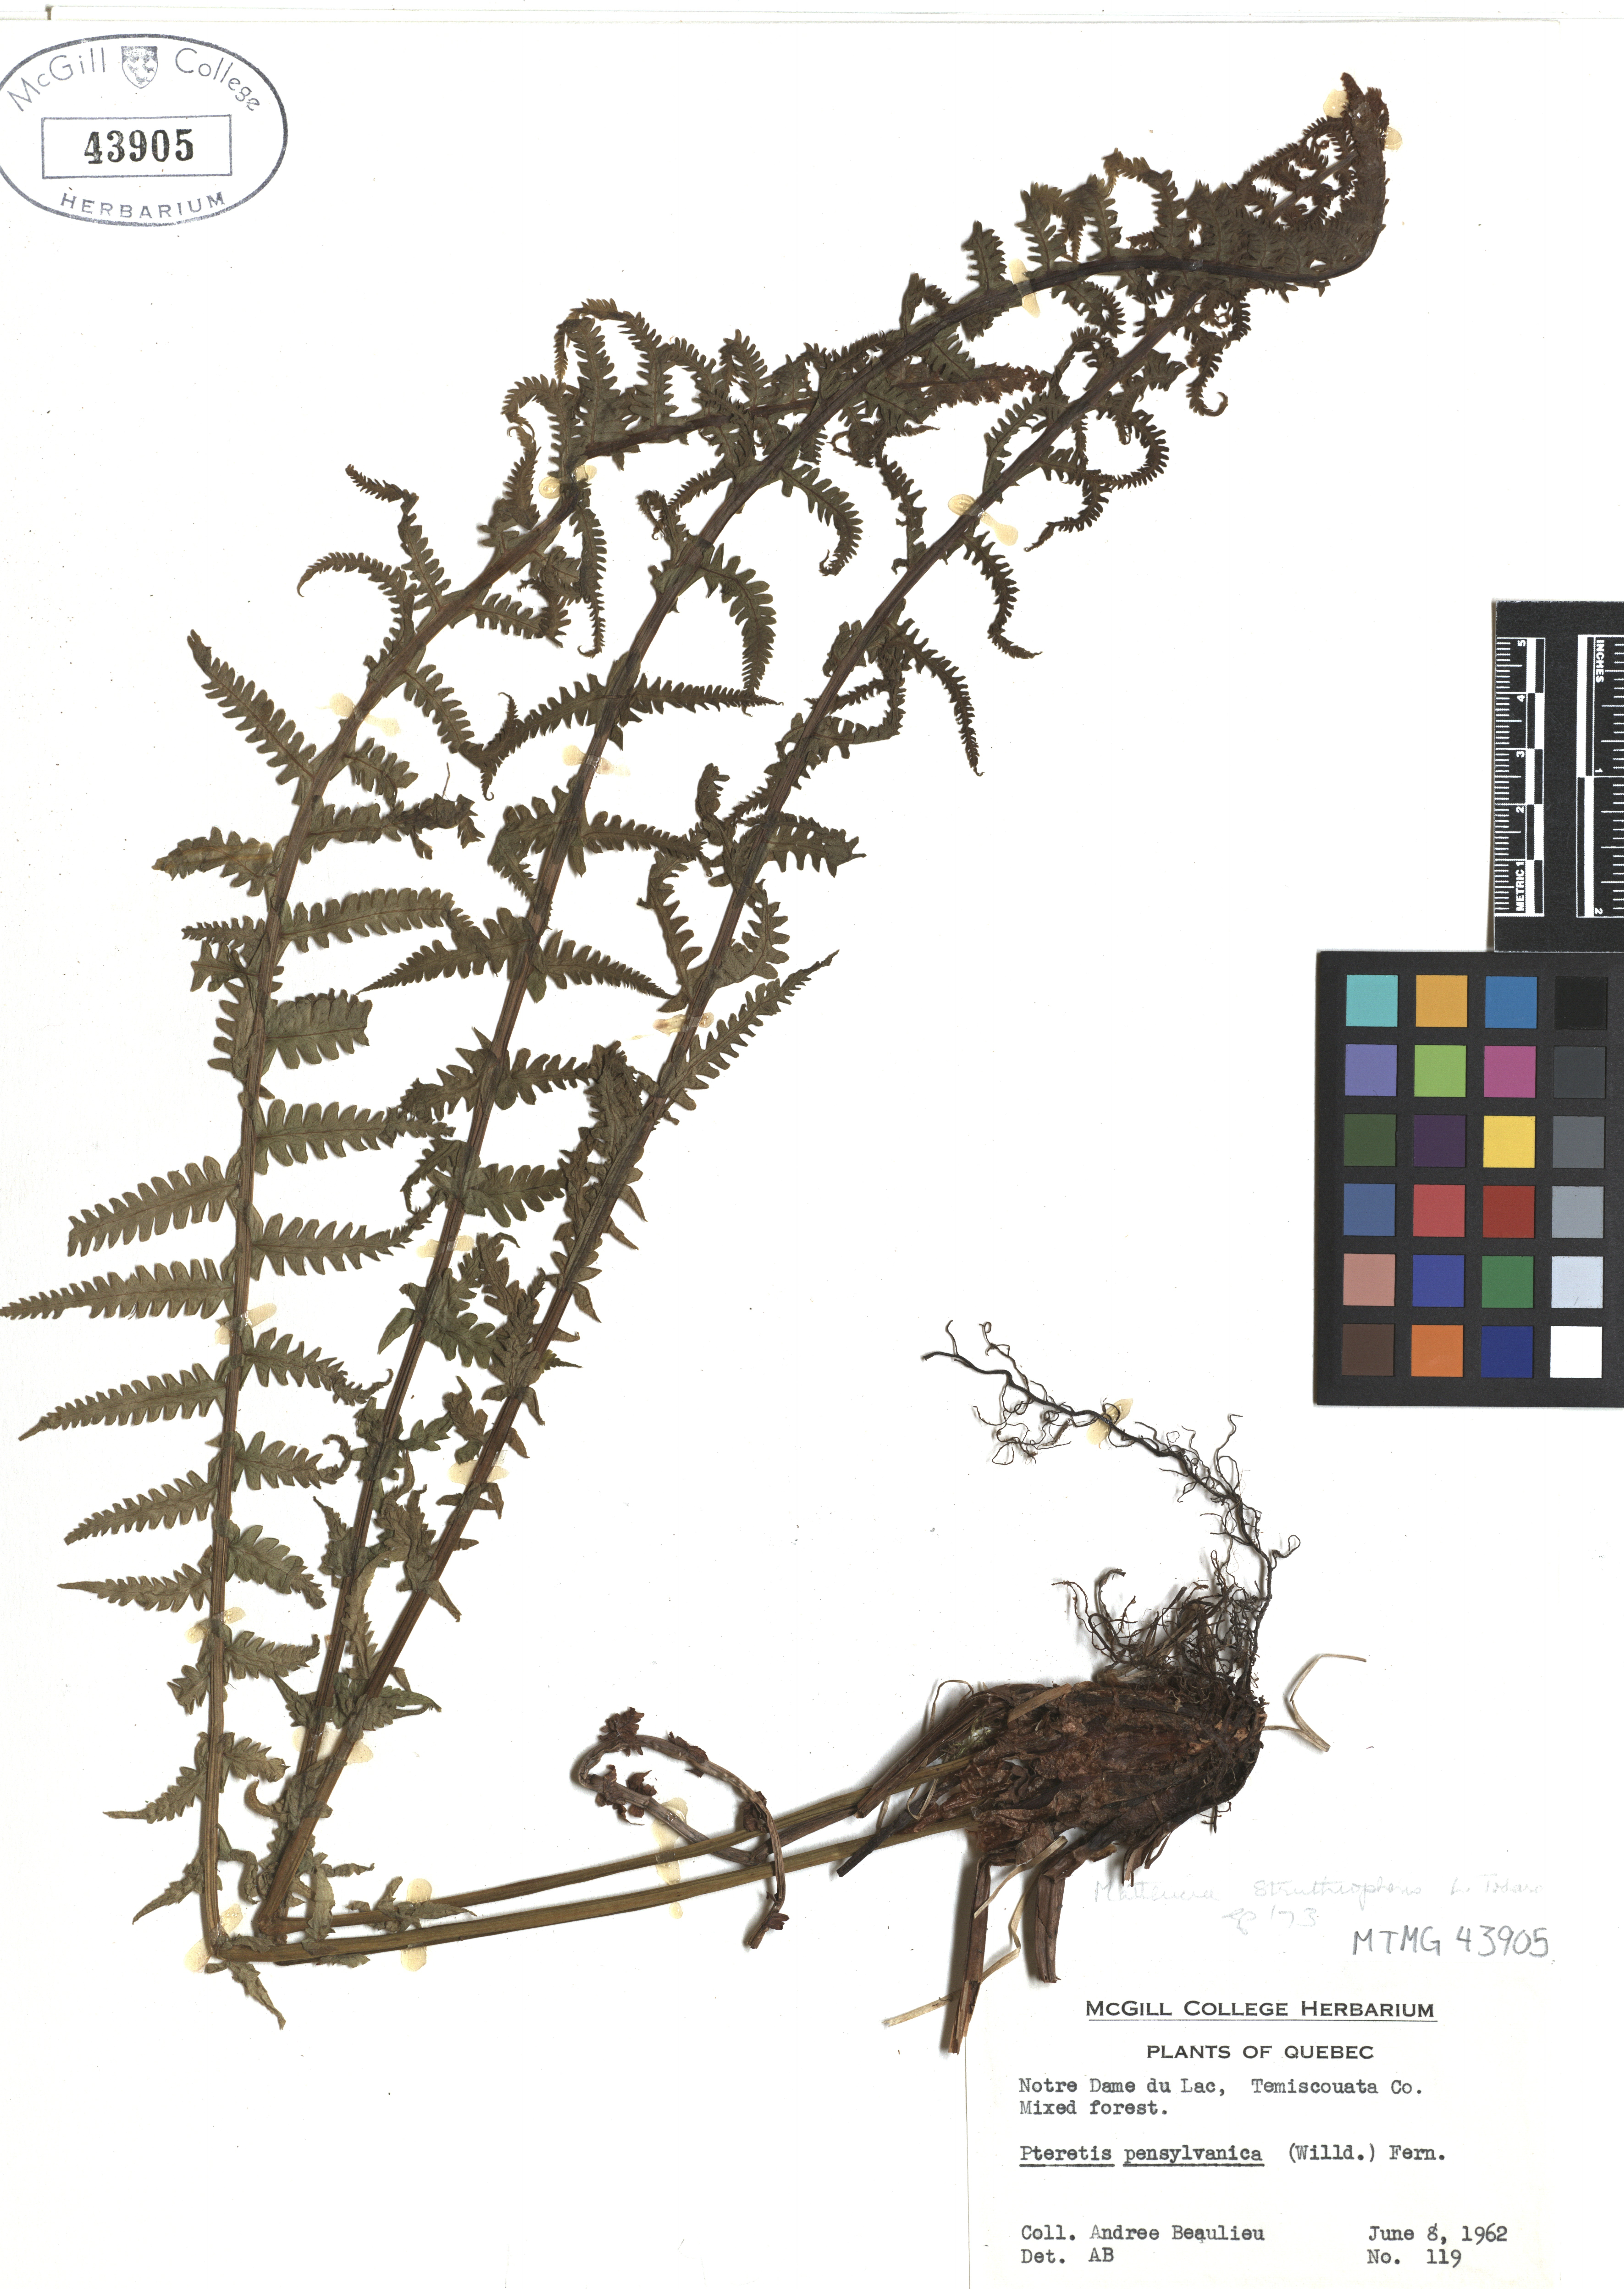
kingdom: Plantae
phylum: Tracheophyta
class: Polypodiopsida
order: Polypodiales
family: Onocleaceae
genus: Matteuccia
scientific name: Matteuccia struthiopteris
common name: Ostrich fern
